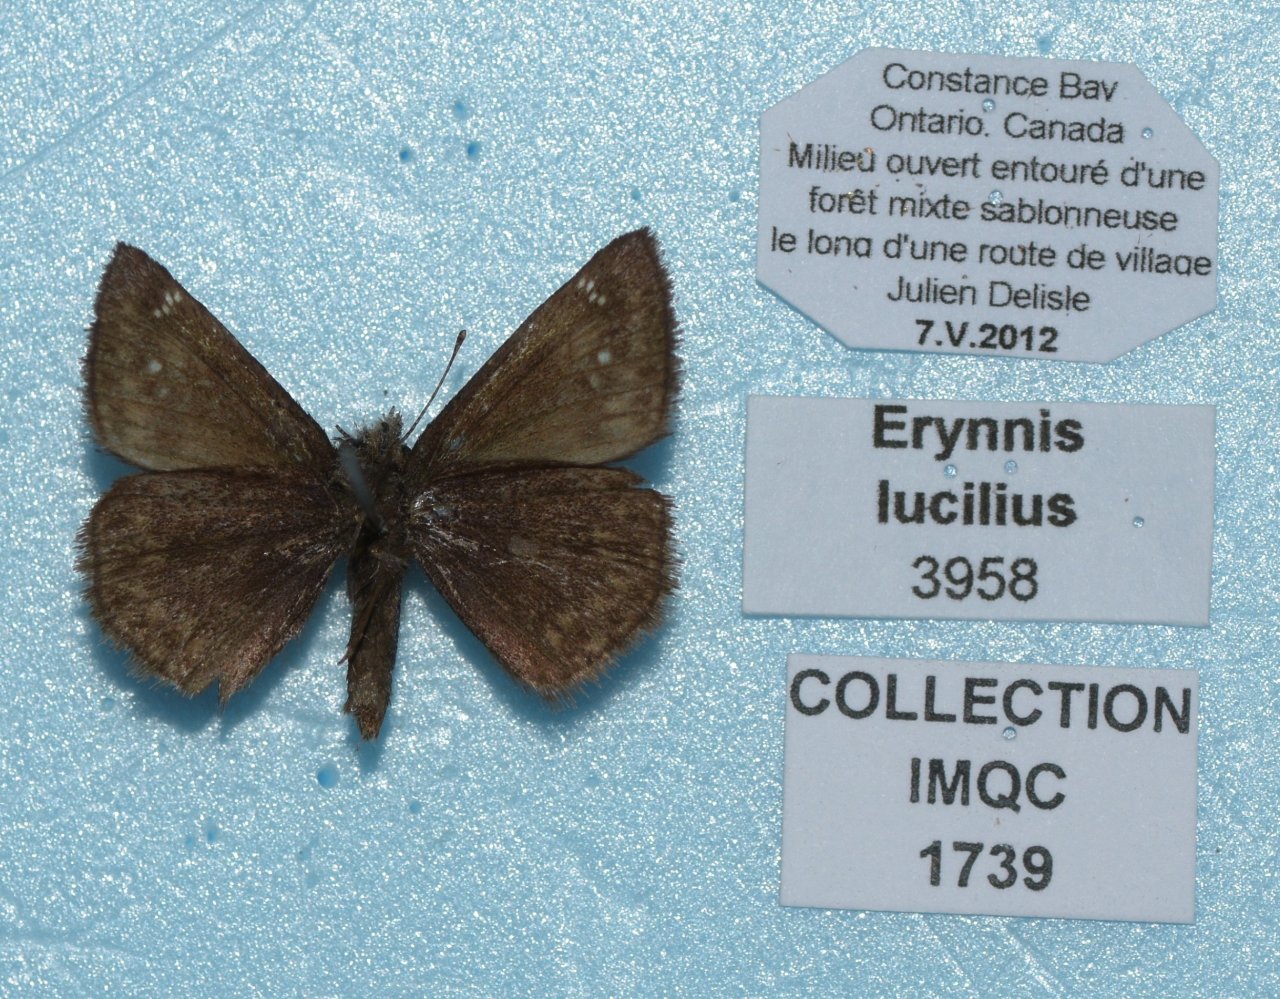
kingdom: Animalia
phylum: Arthropoda
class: Insecta
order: Lepidoptera
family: Hesperiidae
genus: Gesta
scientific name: Gesta
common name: Columbine Duskywing
